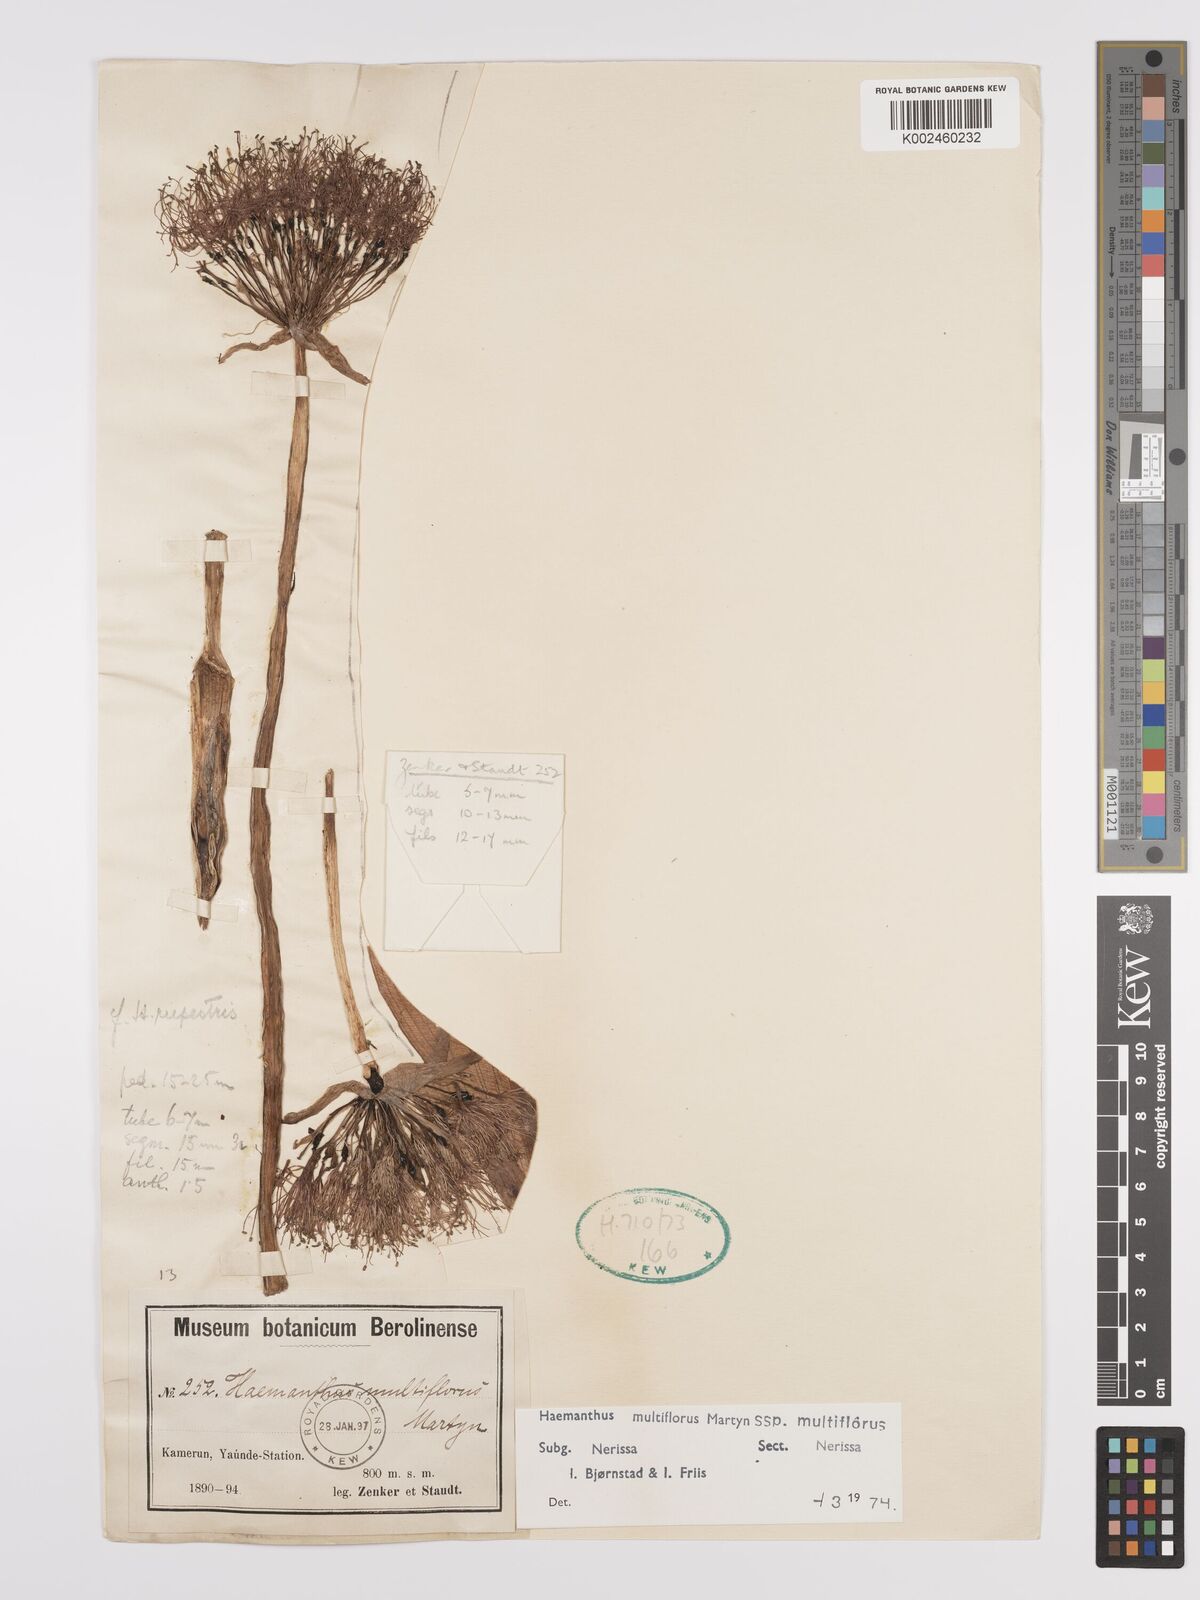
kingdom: Plantae
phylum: Tracheophyta
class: Liliopsida
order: Asparagales
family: Amaryllidaceae
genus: Scadoxus
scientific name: Scadoxus multiflorus
